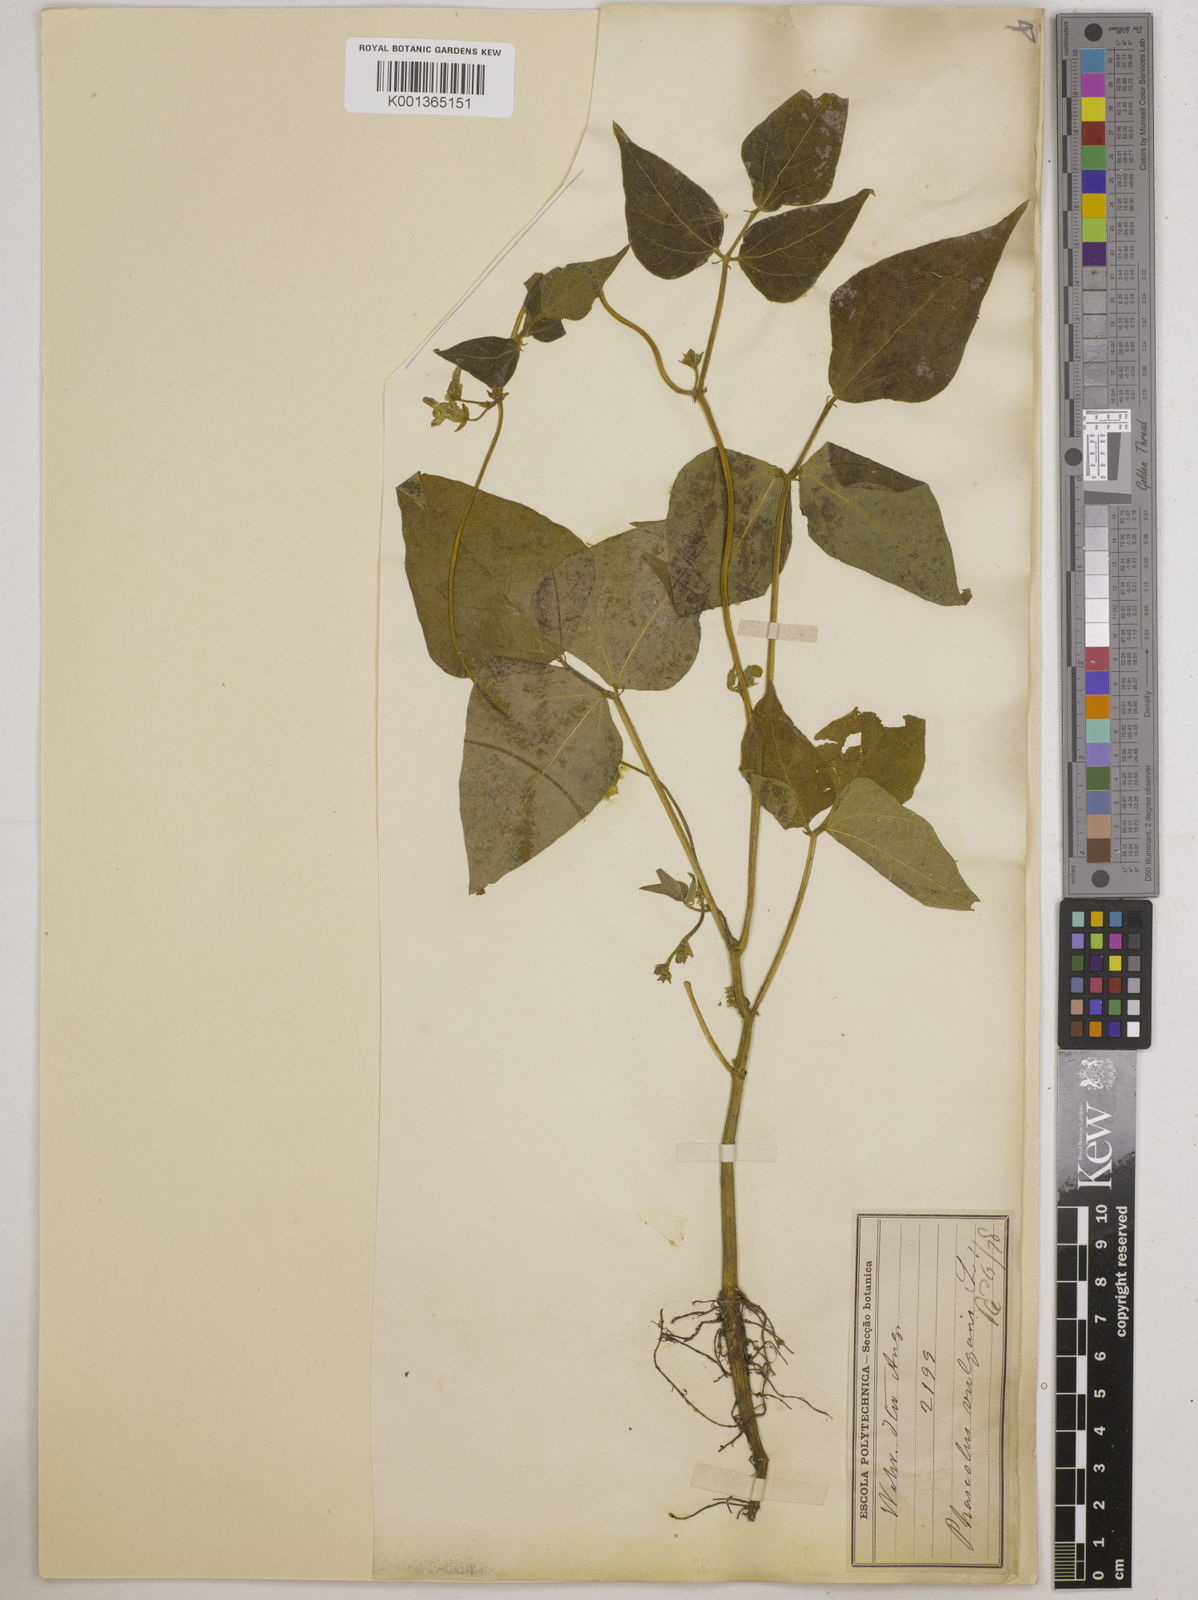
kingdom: Plantae
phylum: Tracheophyta
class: Magnoliopsida
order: Fabales
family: Fabaceae
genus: Phaseolus
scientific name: Phaseolus vulgaris
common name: Bean
